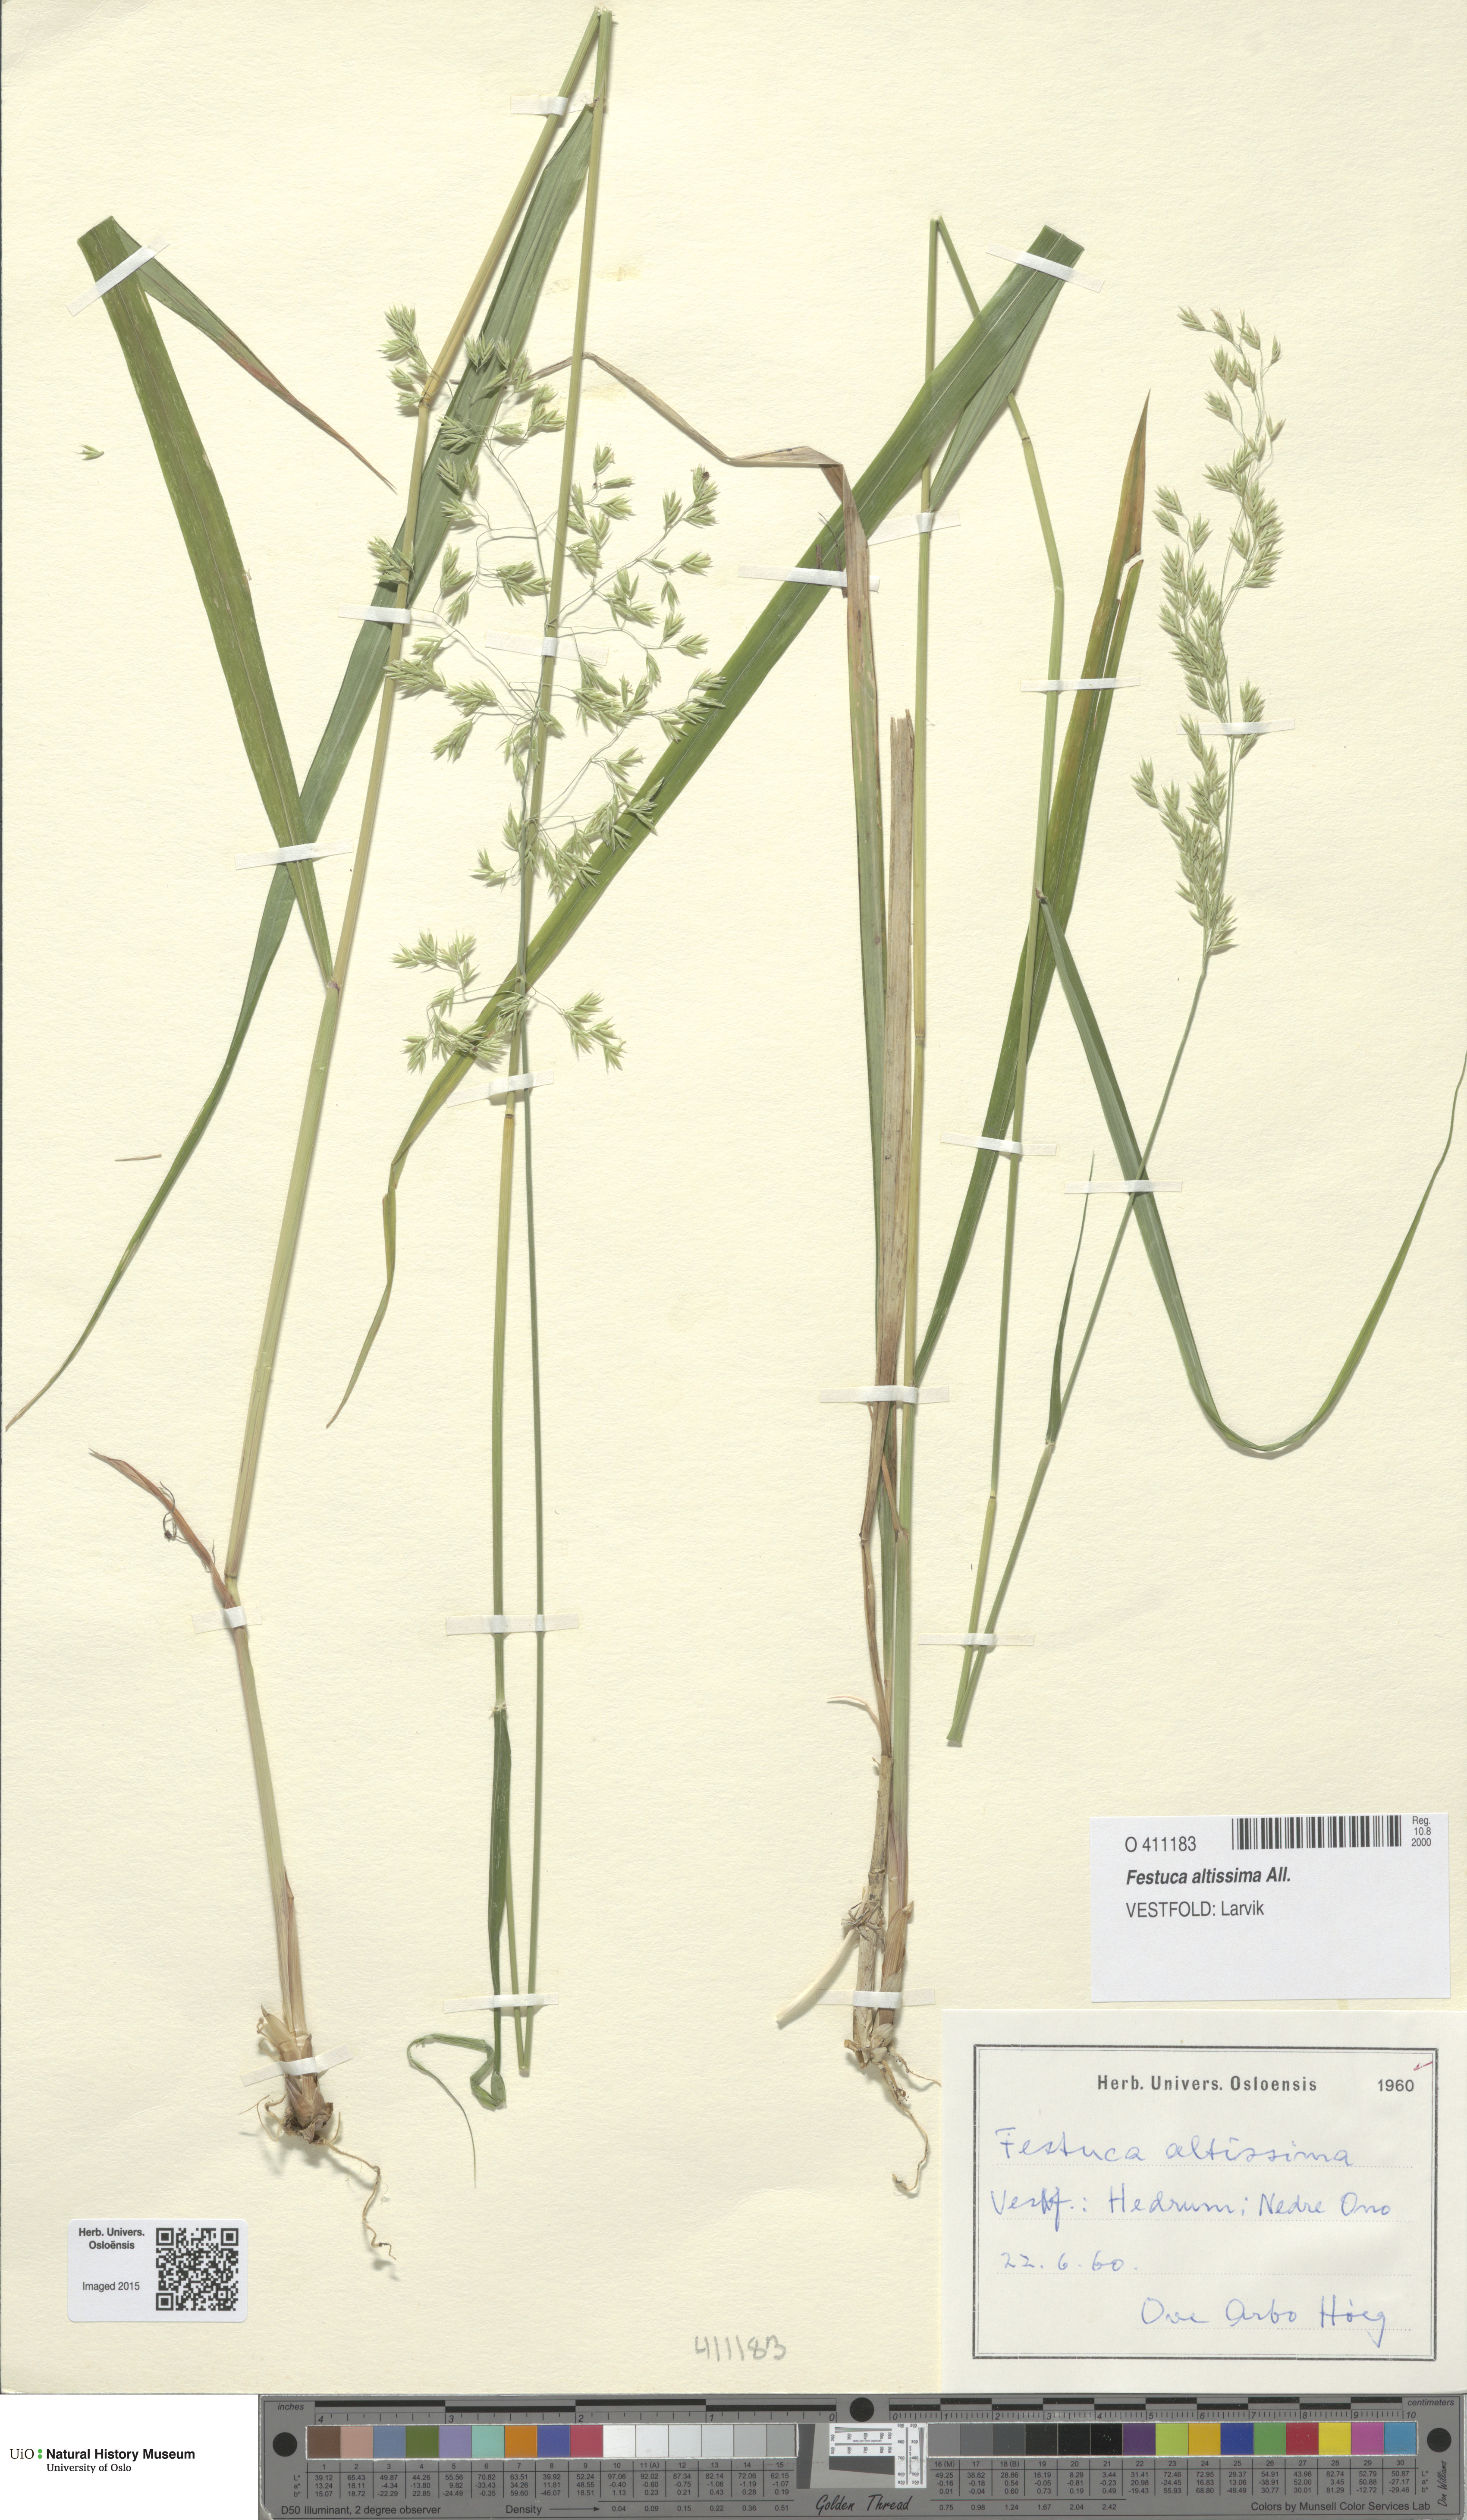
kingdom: Plantae
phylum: Tracheophyta
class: Liliopsida
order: Poales
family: Poaceae
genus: Festuca
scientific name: Festuca altissima
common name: Wood fescue
